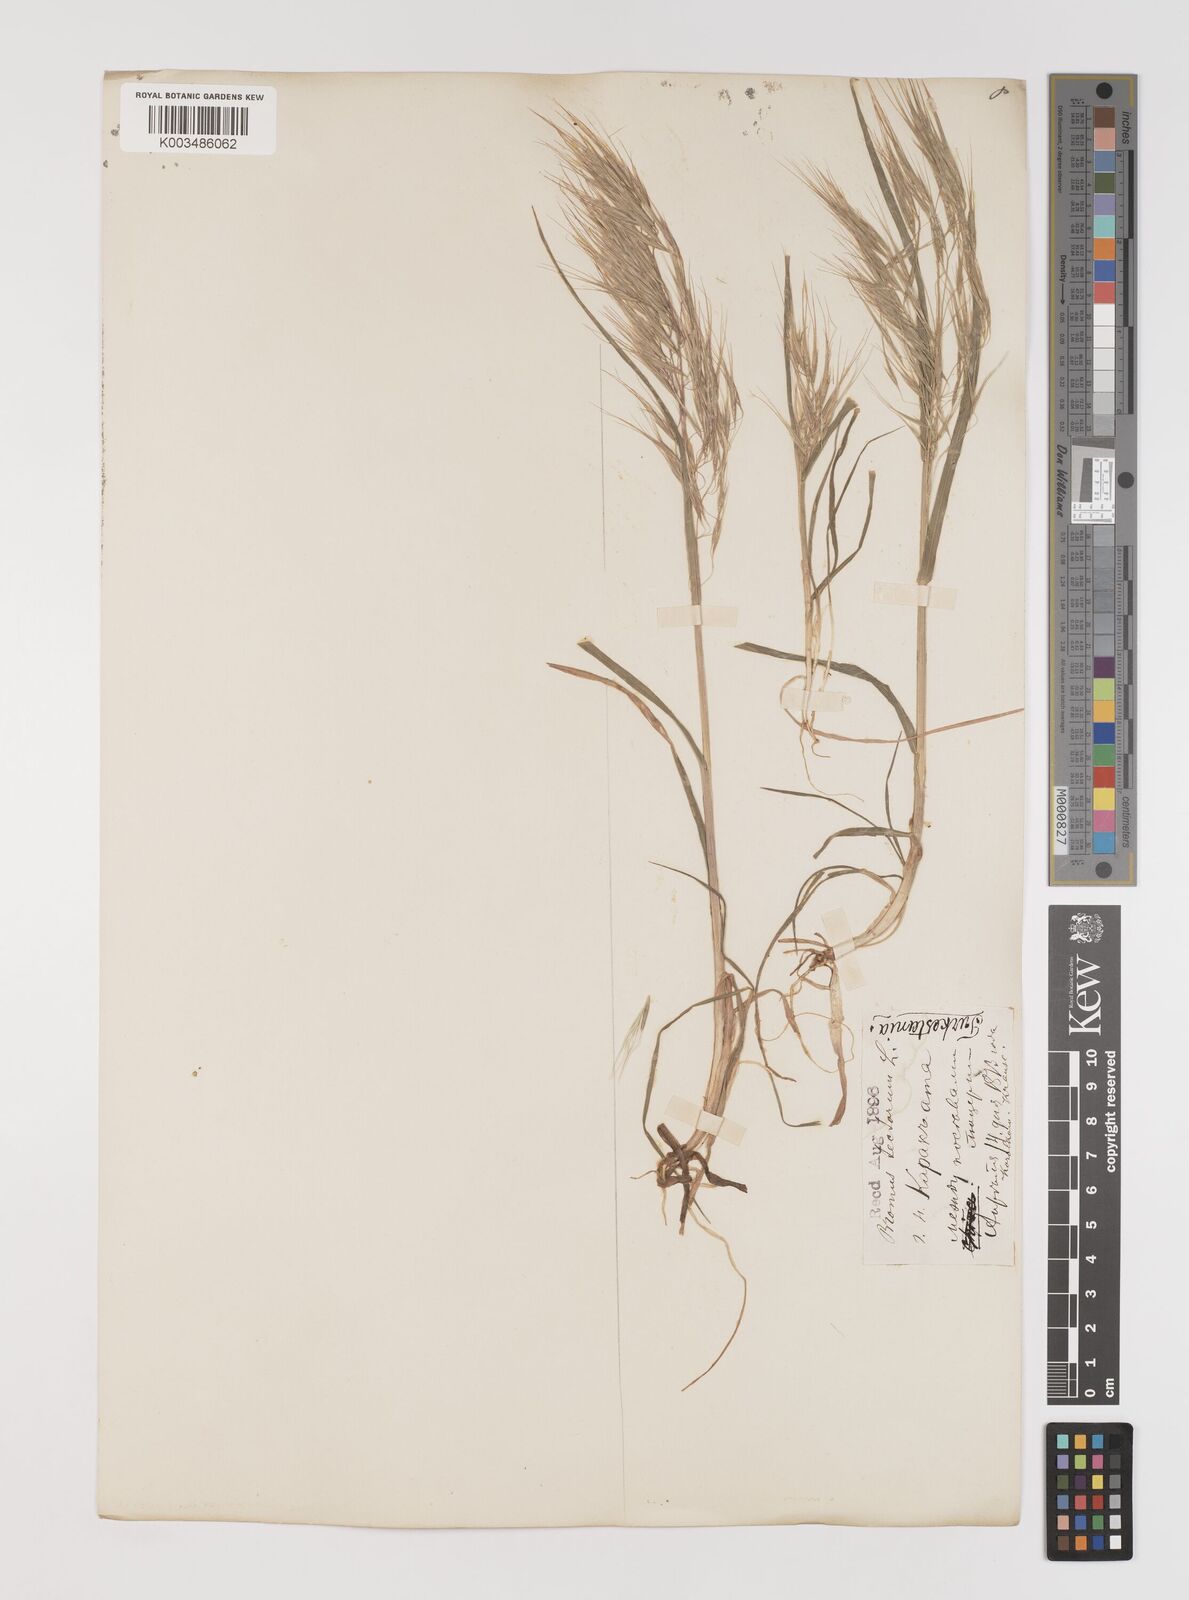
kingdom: Plantae
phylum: Tracheophyta
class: Liliopsida
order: Poales
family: Poaceae
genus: Bromus
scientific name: Bromus tectorum
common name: Cheatgrass
